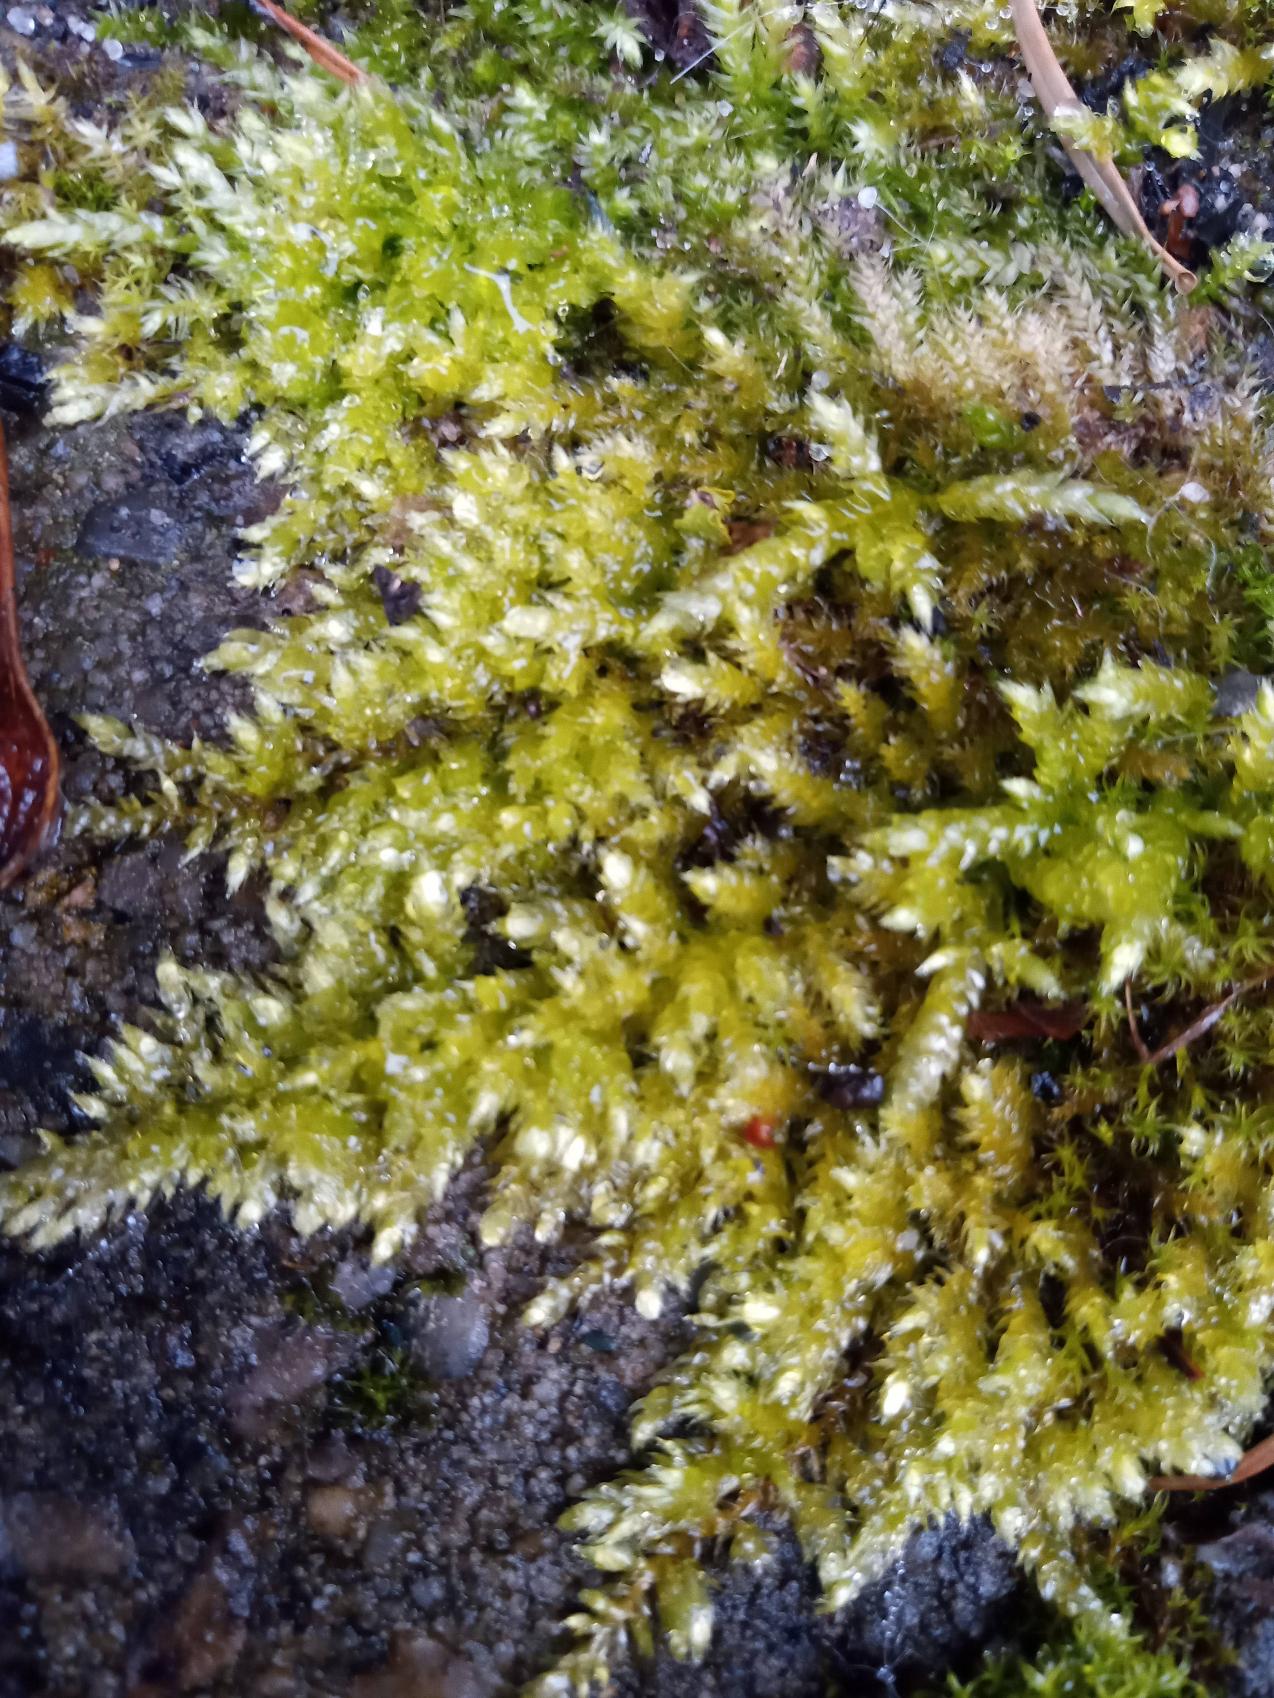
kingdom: Plantae
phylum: Bryophyta
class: Bryopsida
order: Hypnales
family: Brachytheciaceae
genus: Brachythecium
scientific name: Brachythecium
